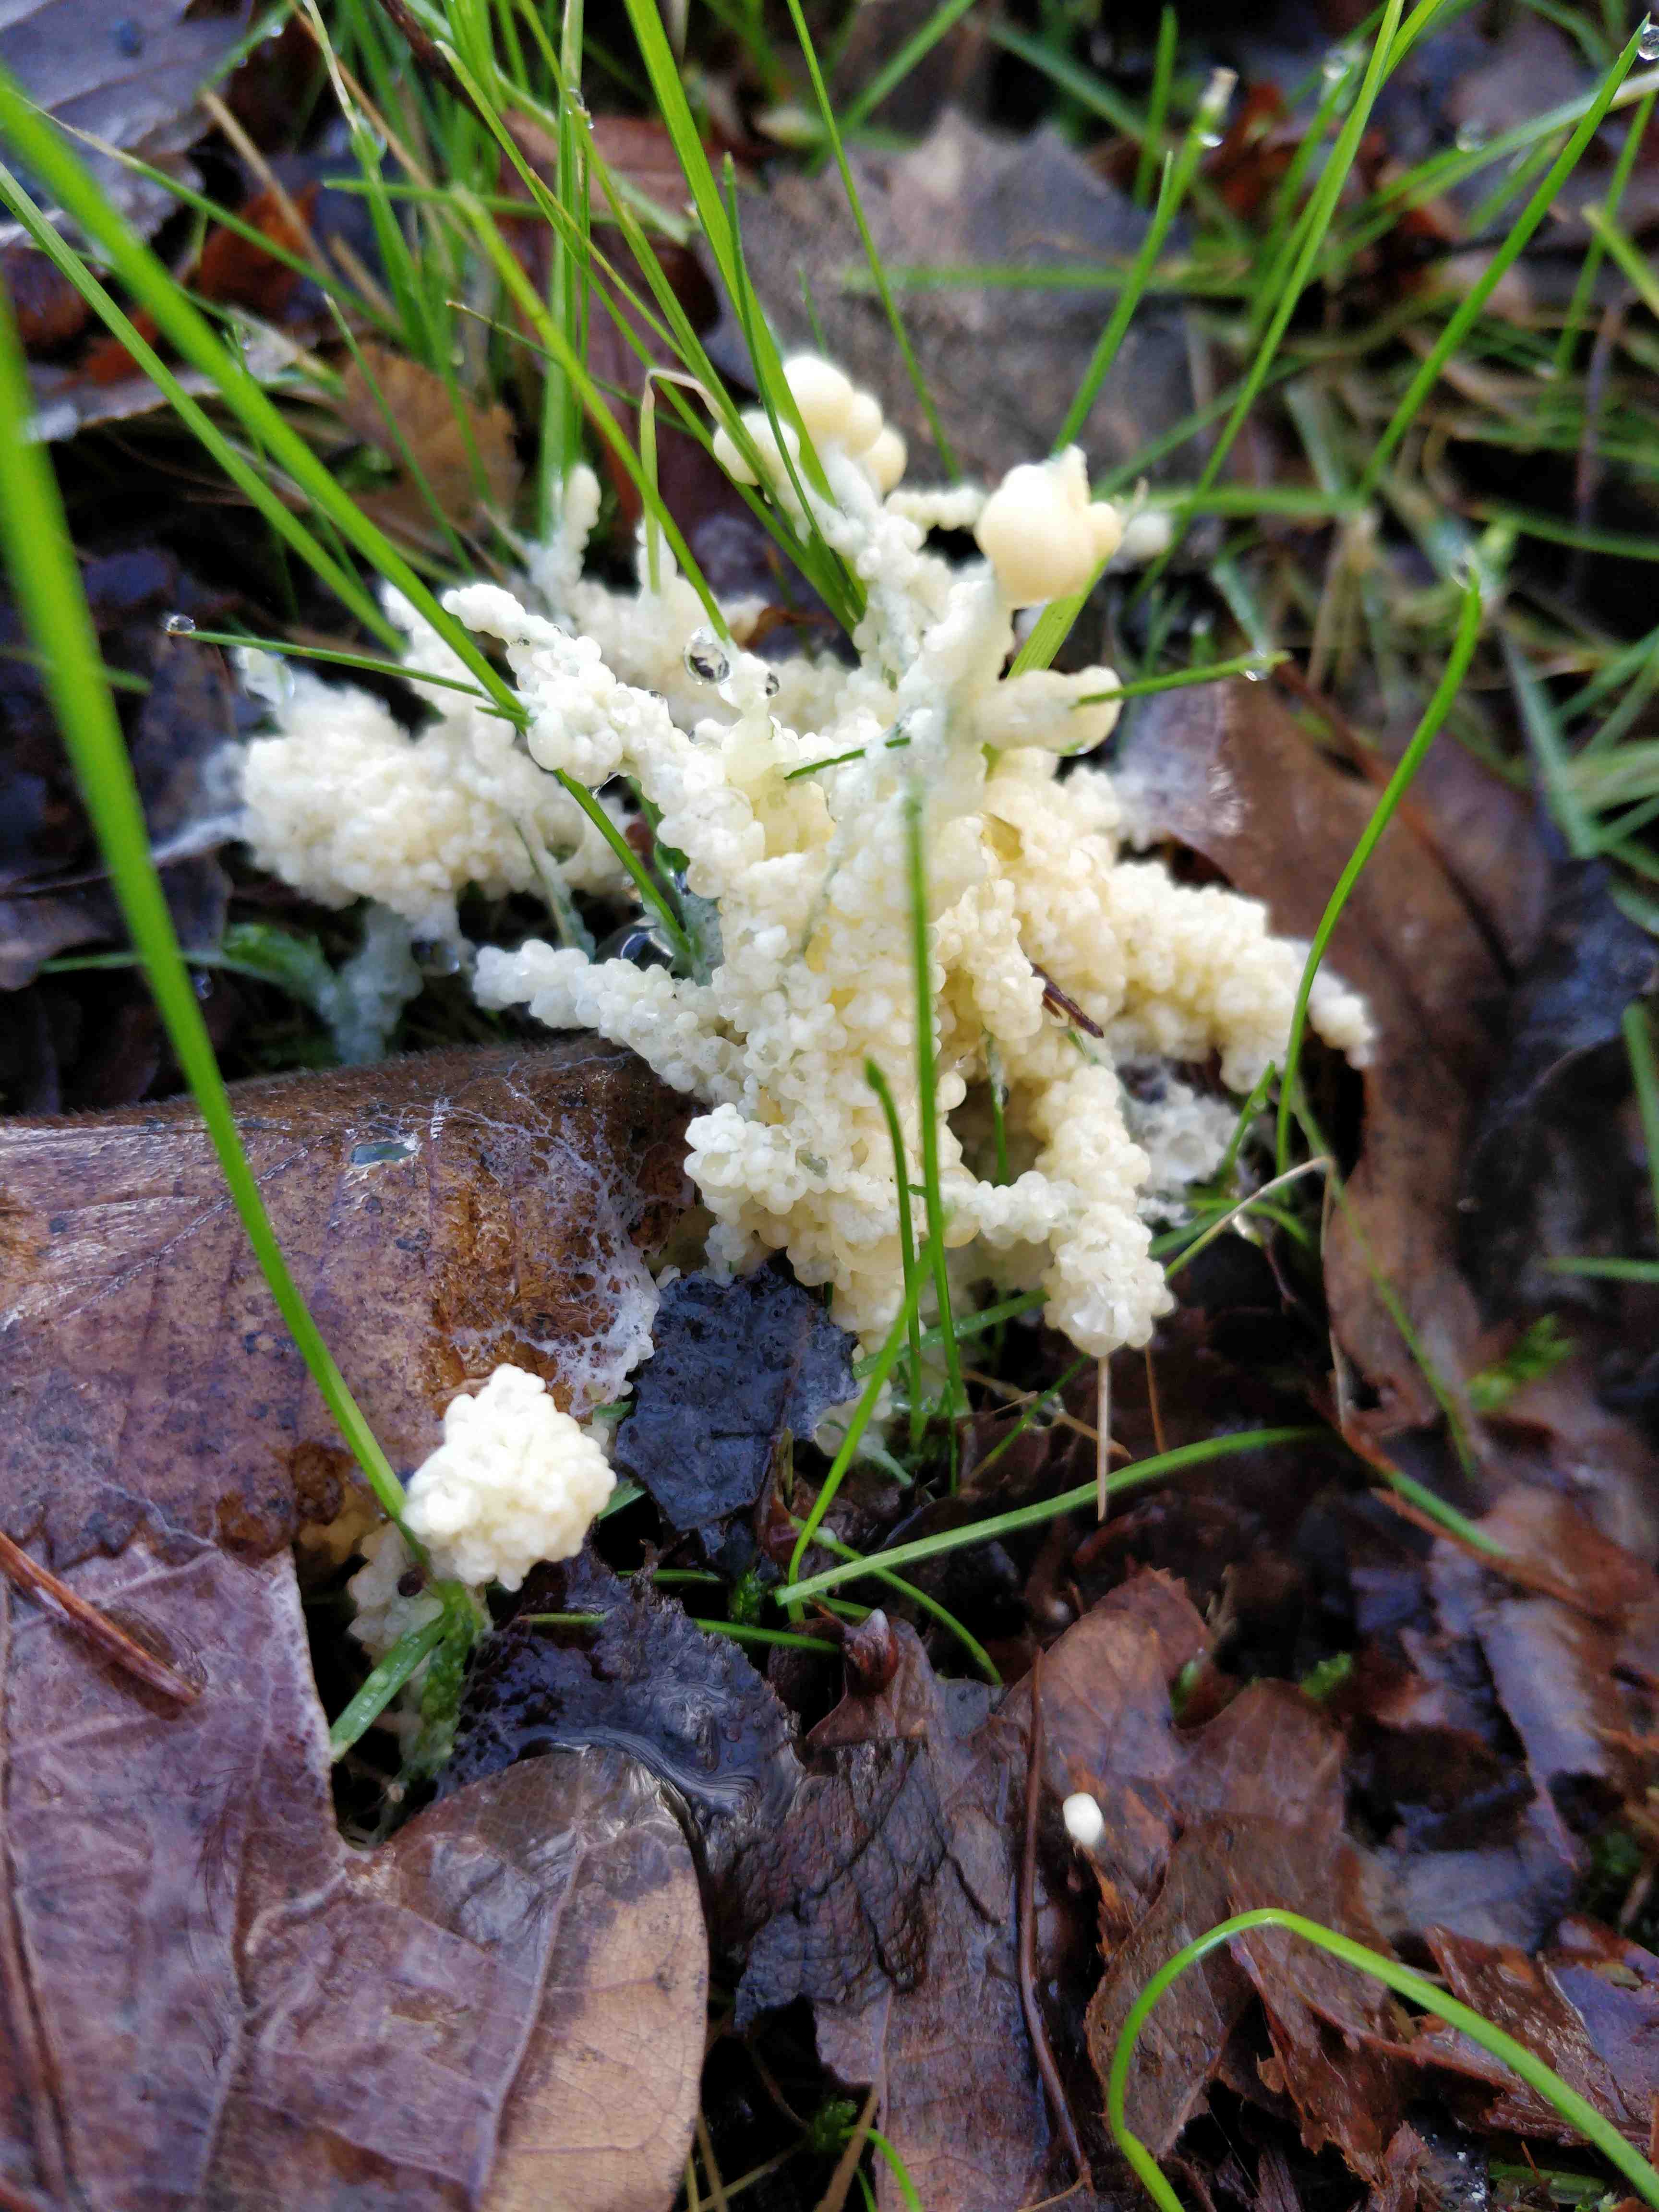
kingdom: Protozoa
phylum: Mycetozoa
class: Myxomycetes
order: Physarales
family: Physaraceae
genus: Didymium
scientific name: Didymium
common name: urteskum
